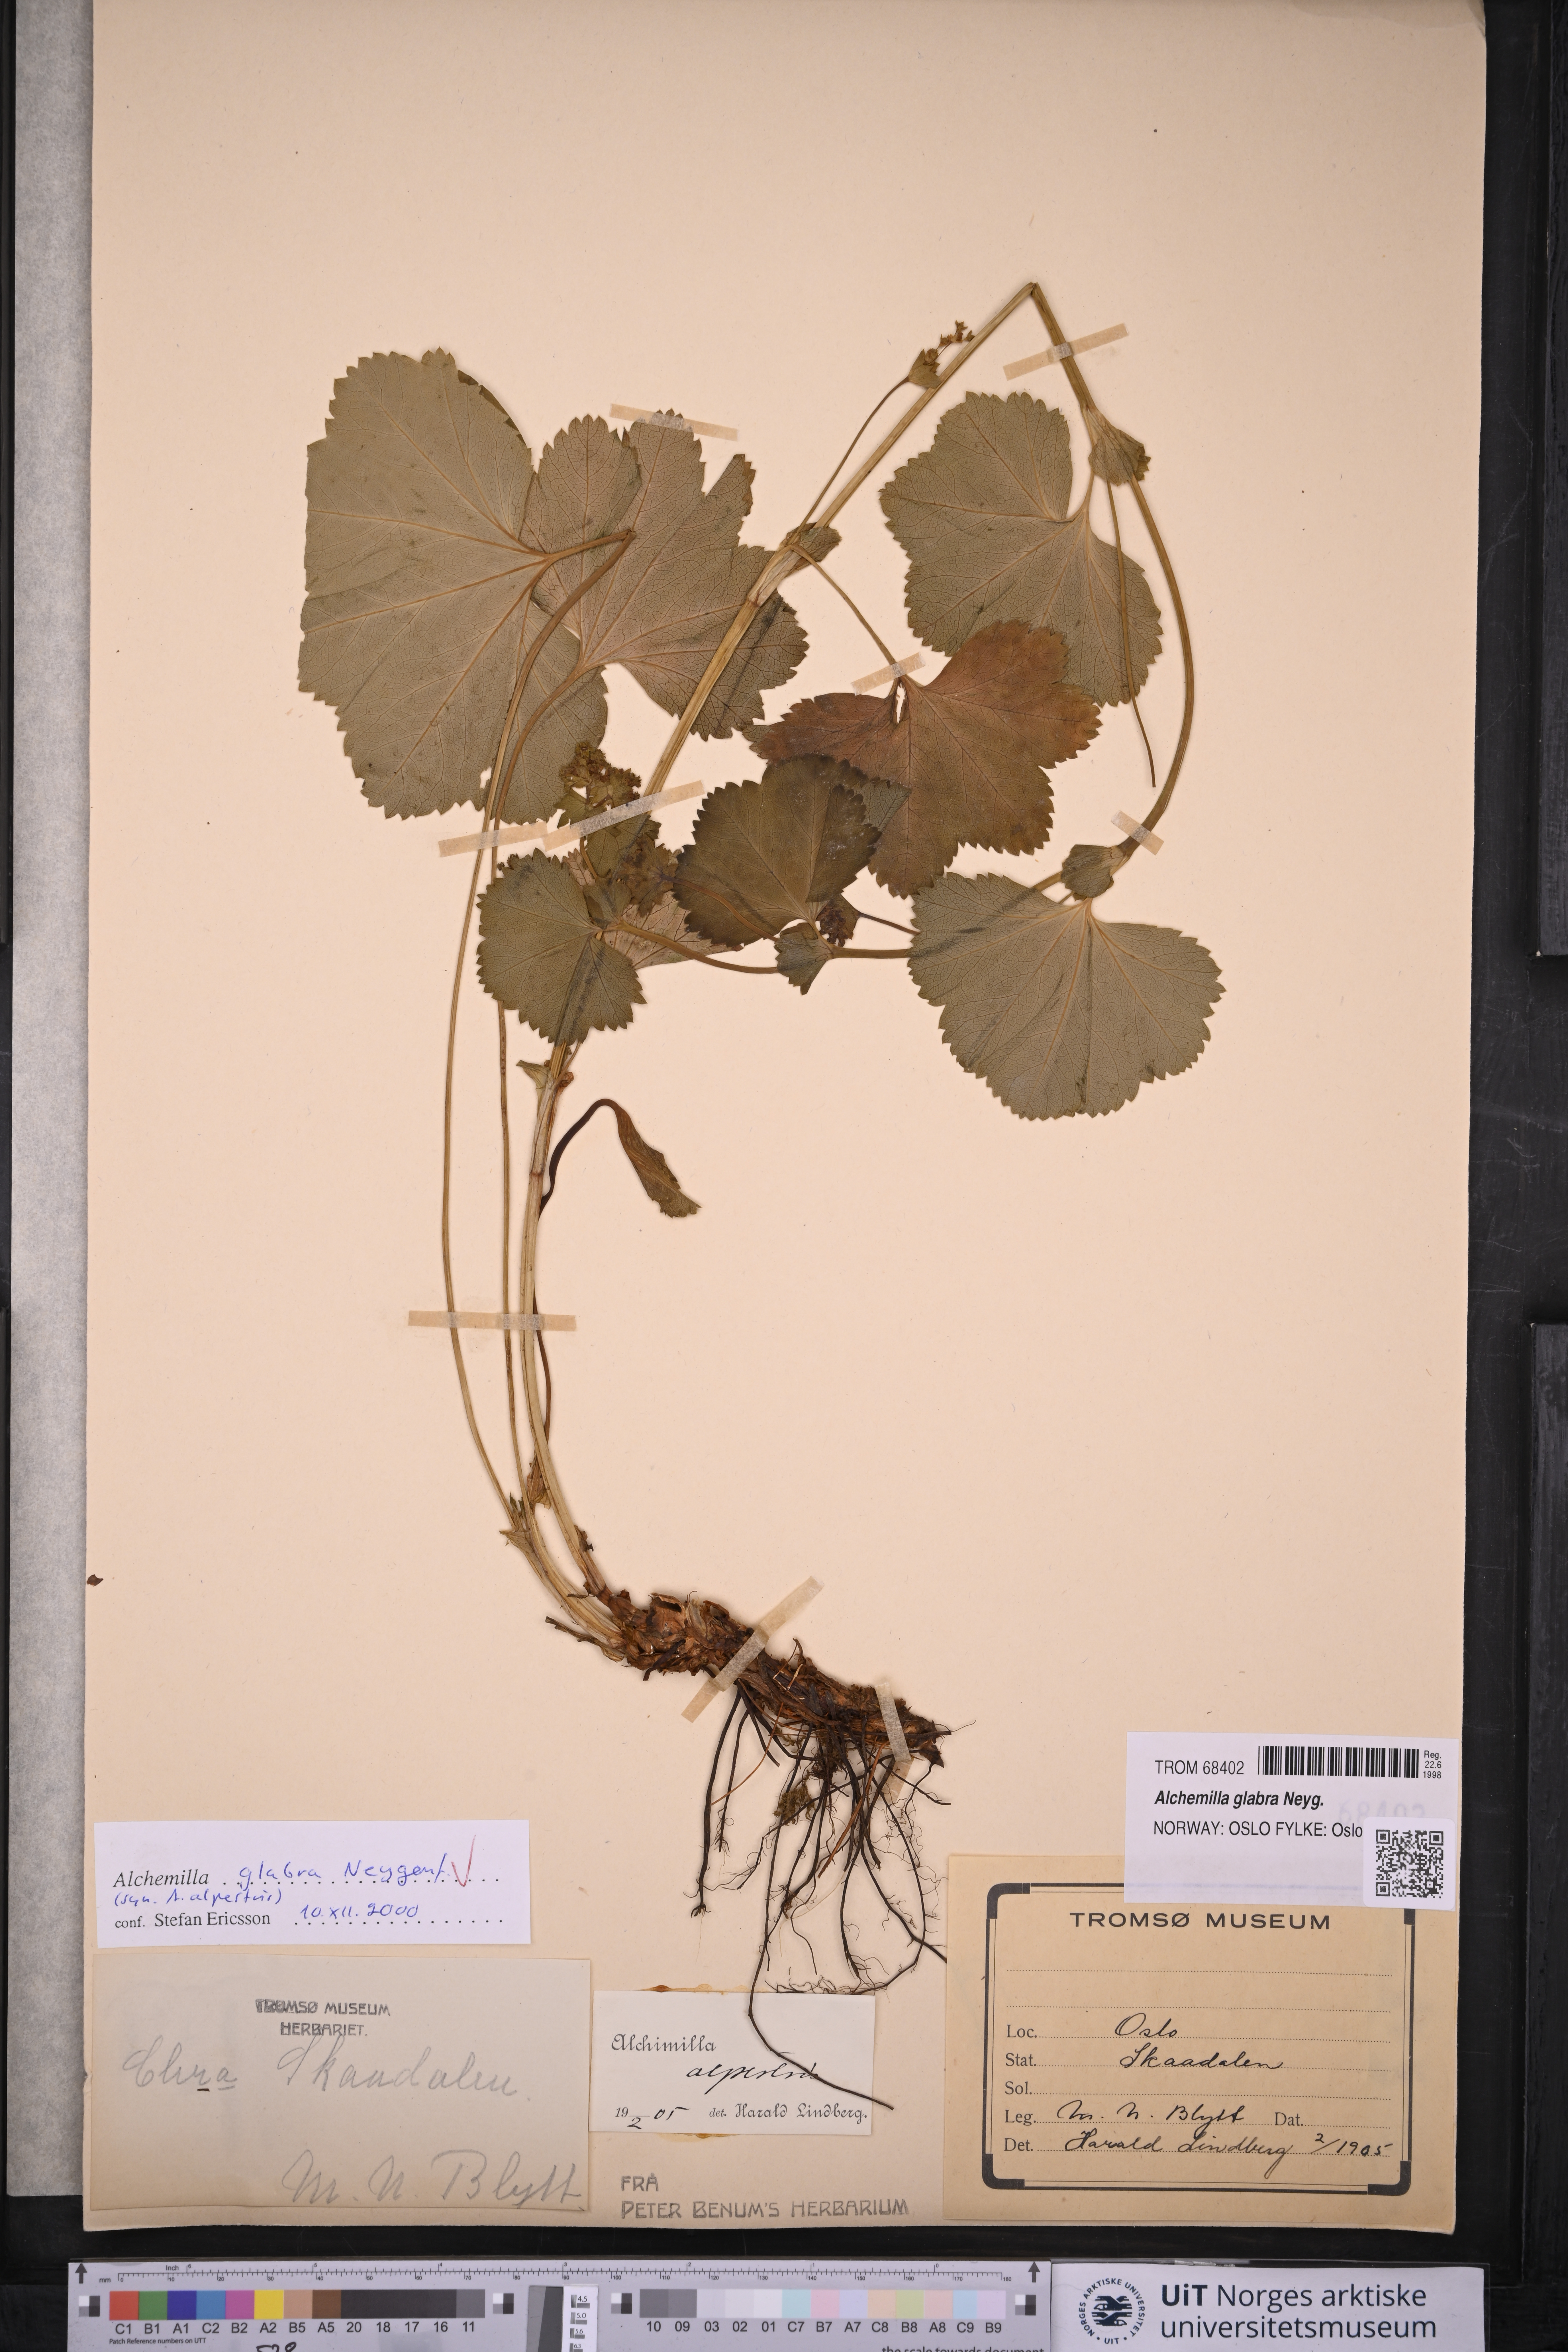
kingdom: Plantae
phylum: Tracheophyta
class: Magnoliopsida
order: Rosales
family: Rosaceae
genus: Alchemilla
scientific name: Alchemilla glabra
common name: Smooth lady's-mantle
